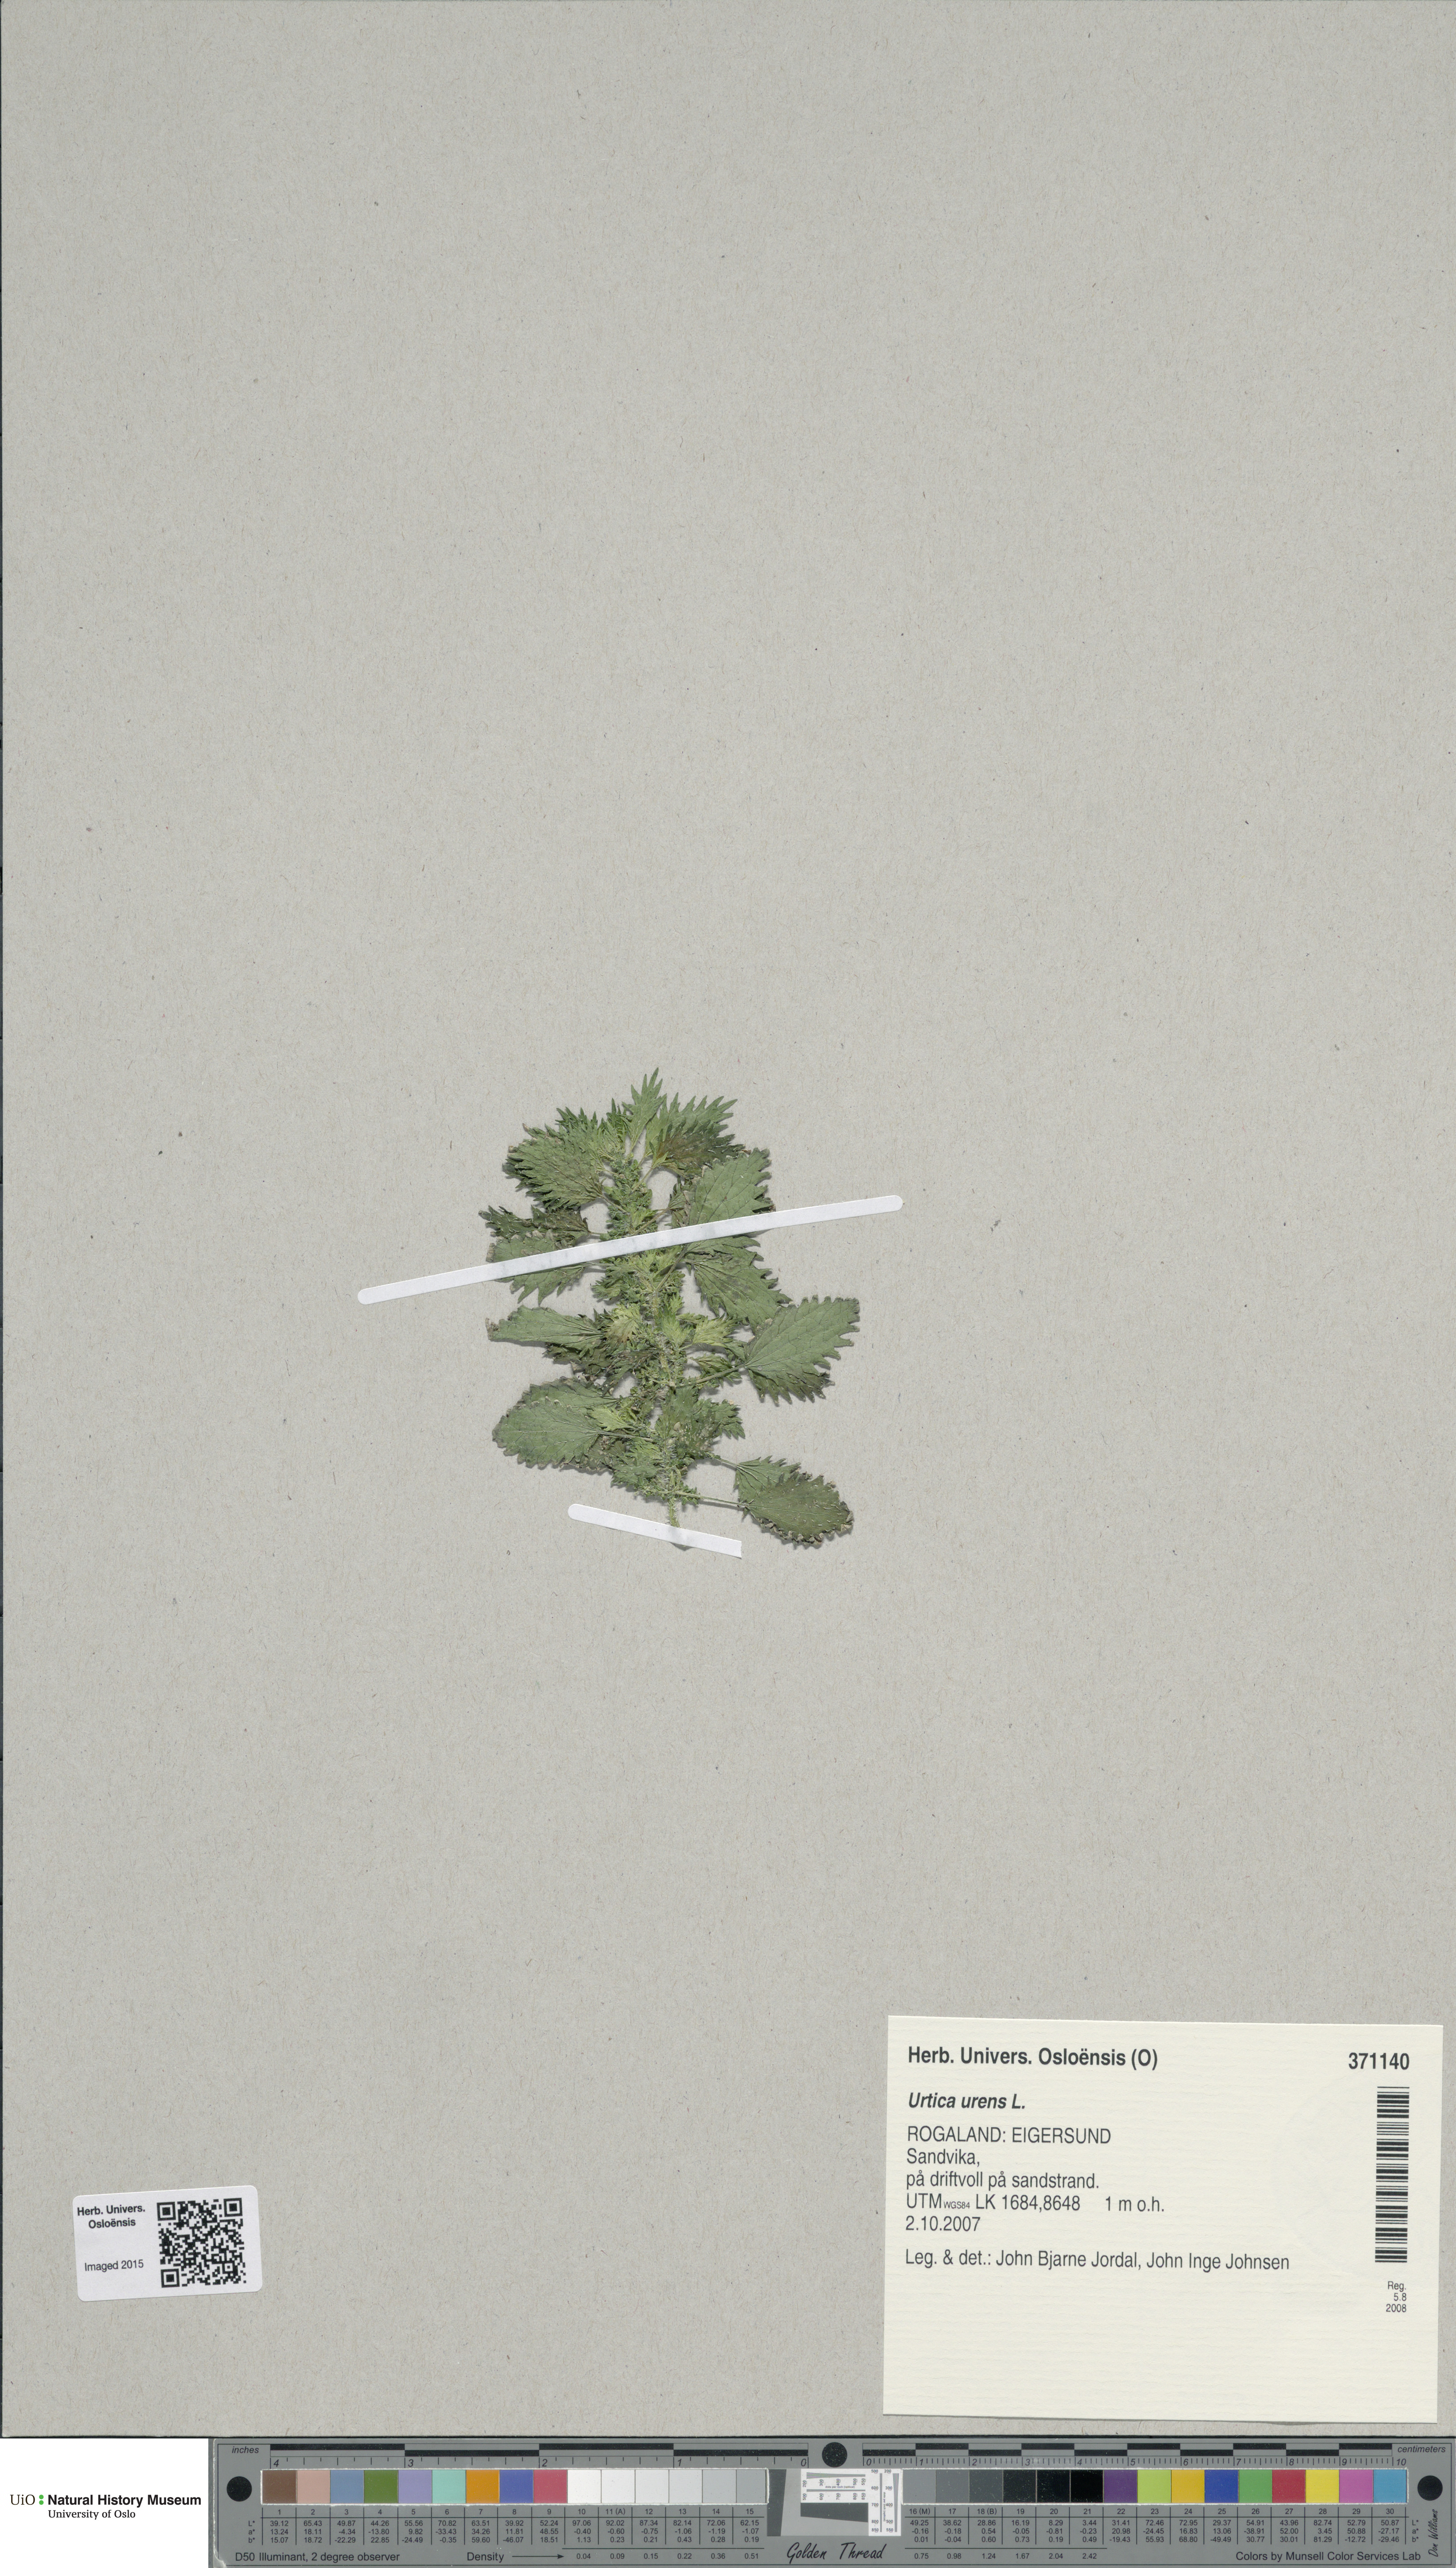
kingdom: Plantae
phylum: Tracheophyta
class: Magnoliopsida
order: Rosales
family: Urticaceae
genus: Urtica
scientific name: Urtica urens
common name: Dwarf nettle
